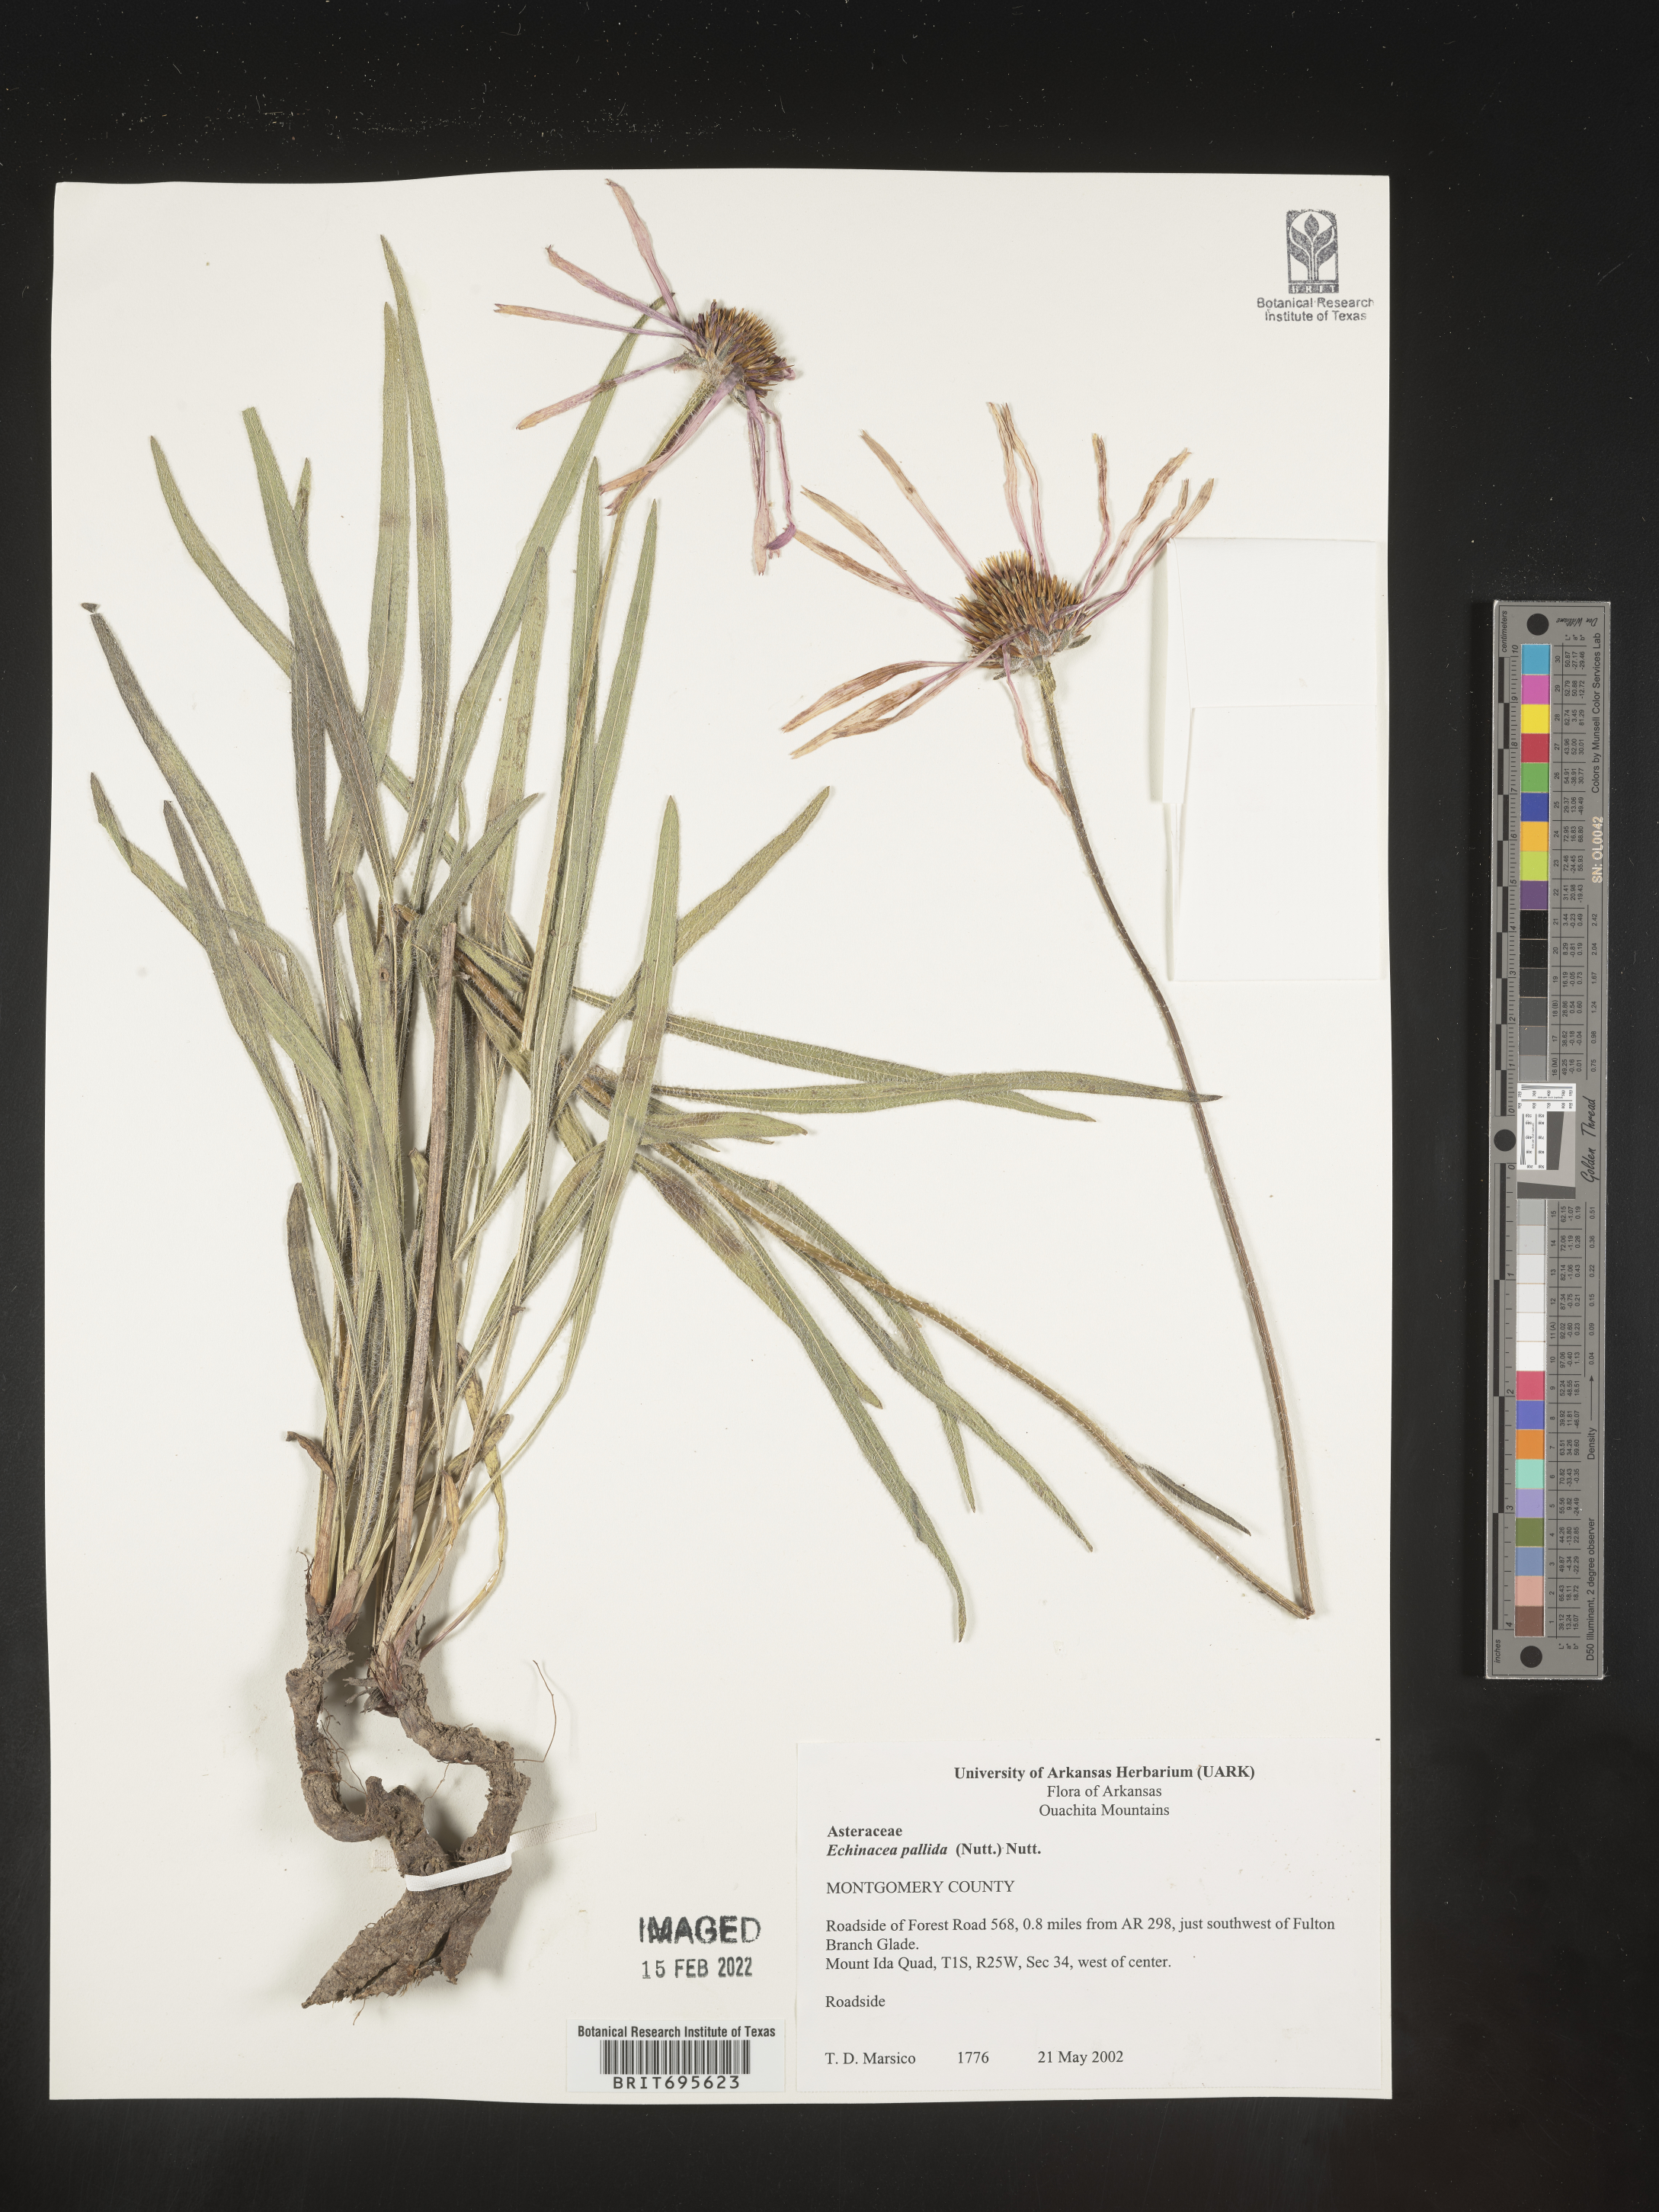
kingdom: Plantae
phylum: Tracheophyta
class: Magnoliopsida
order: Asterales
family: Asteraceae
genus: Echinacea
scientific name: Echinacea pallida
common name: Pale echinacea
